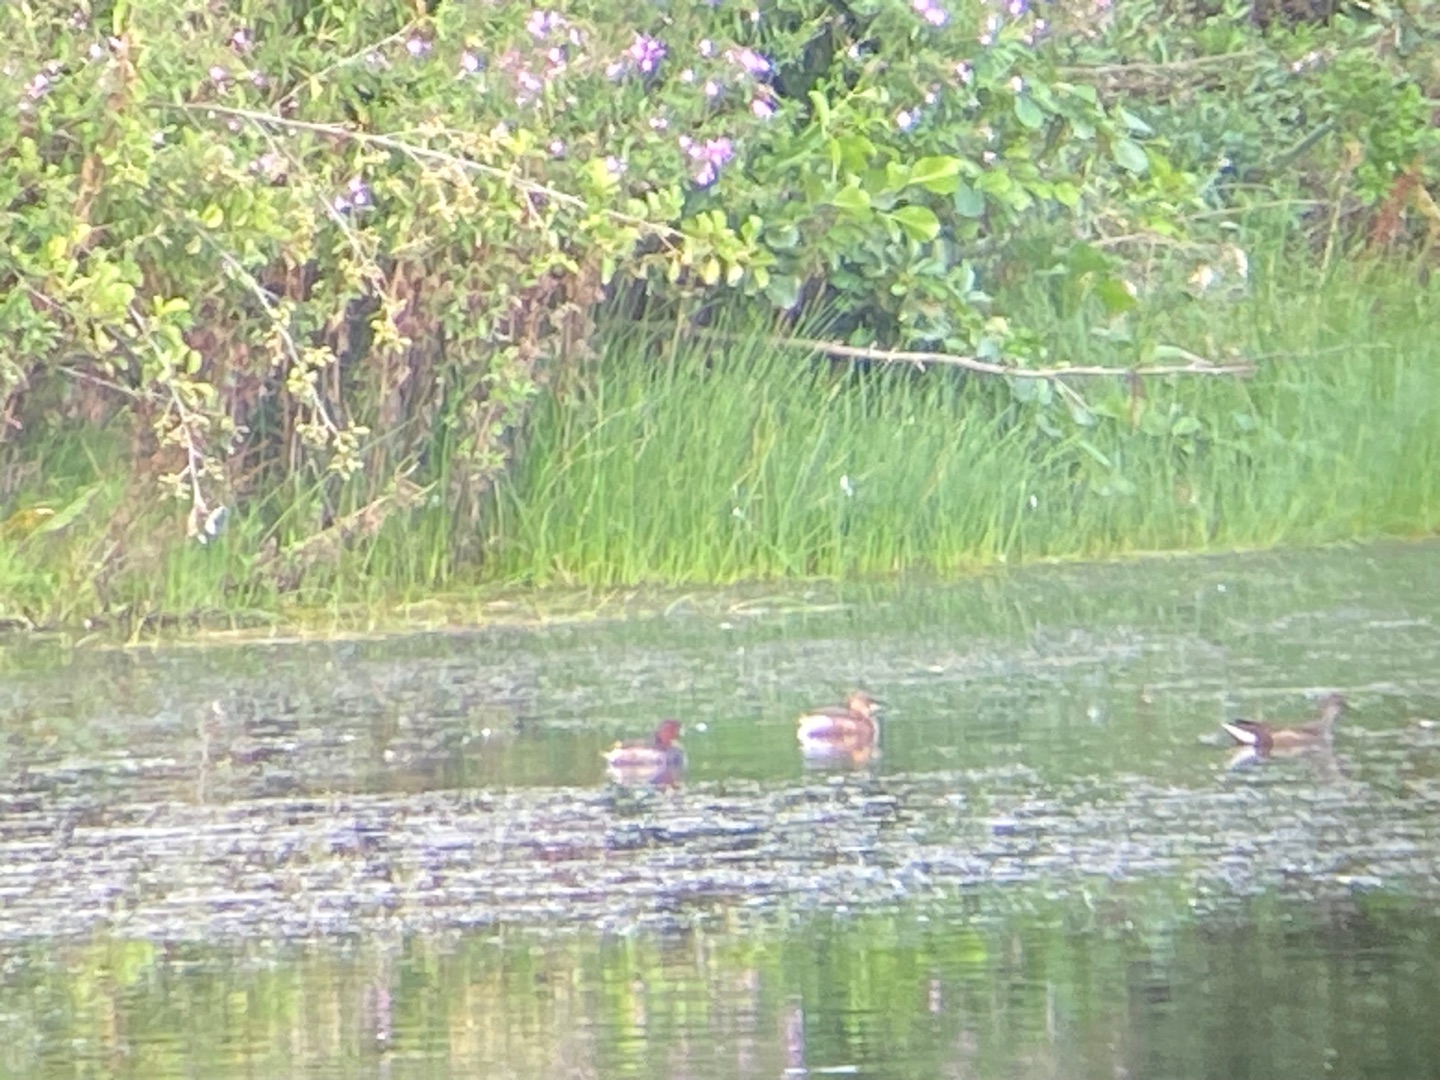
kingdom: Animalia
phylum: Chordata
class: Aves
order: Podicipediformes
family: Podicipedidae
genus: Tachybaptus
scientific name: Tachybaptus ruficollis
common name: Lille lappedykker
